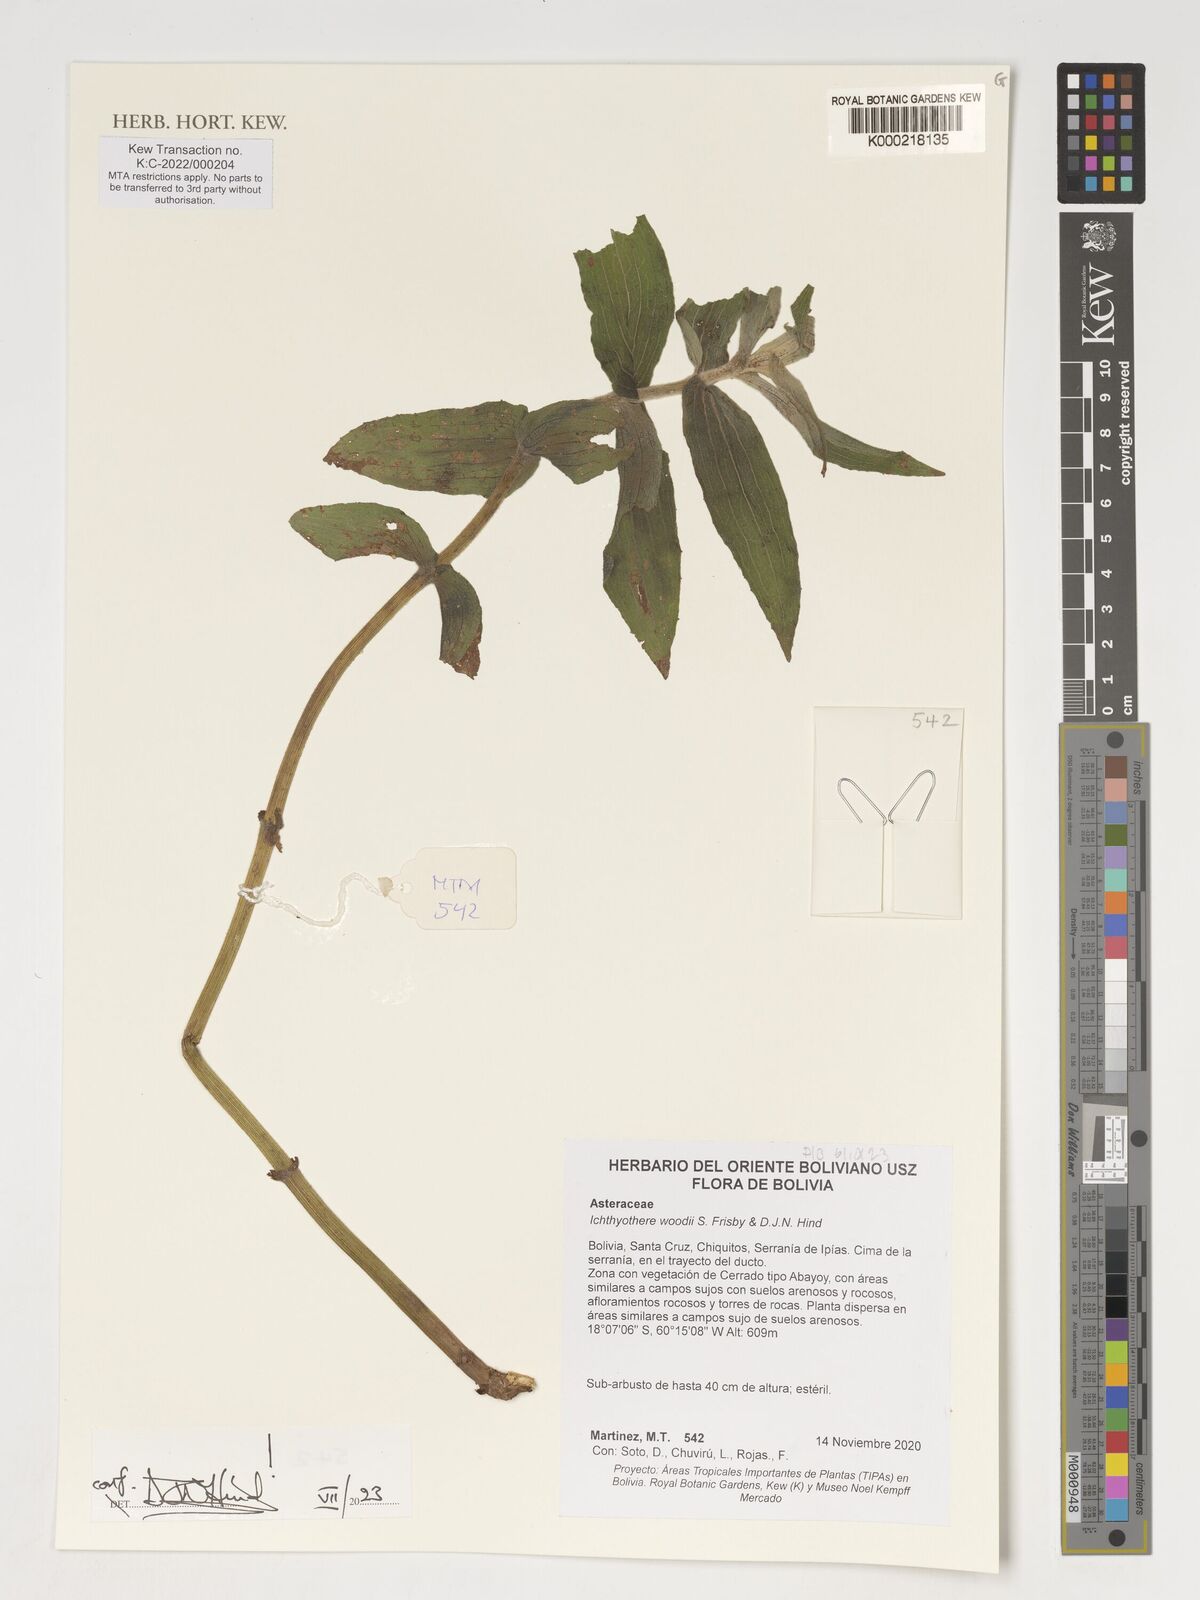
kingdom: Plantae
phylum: Tracheophyta
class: Magnoliopsida
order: Asterales
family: Asteraceae
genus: Ichthyothere
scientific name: Ichthyothere woodii
